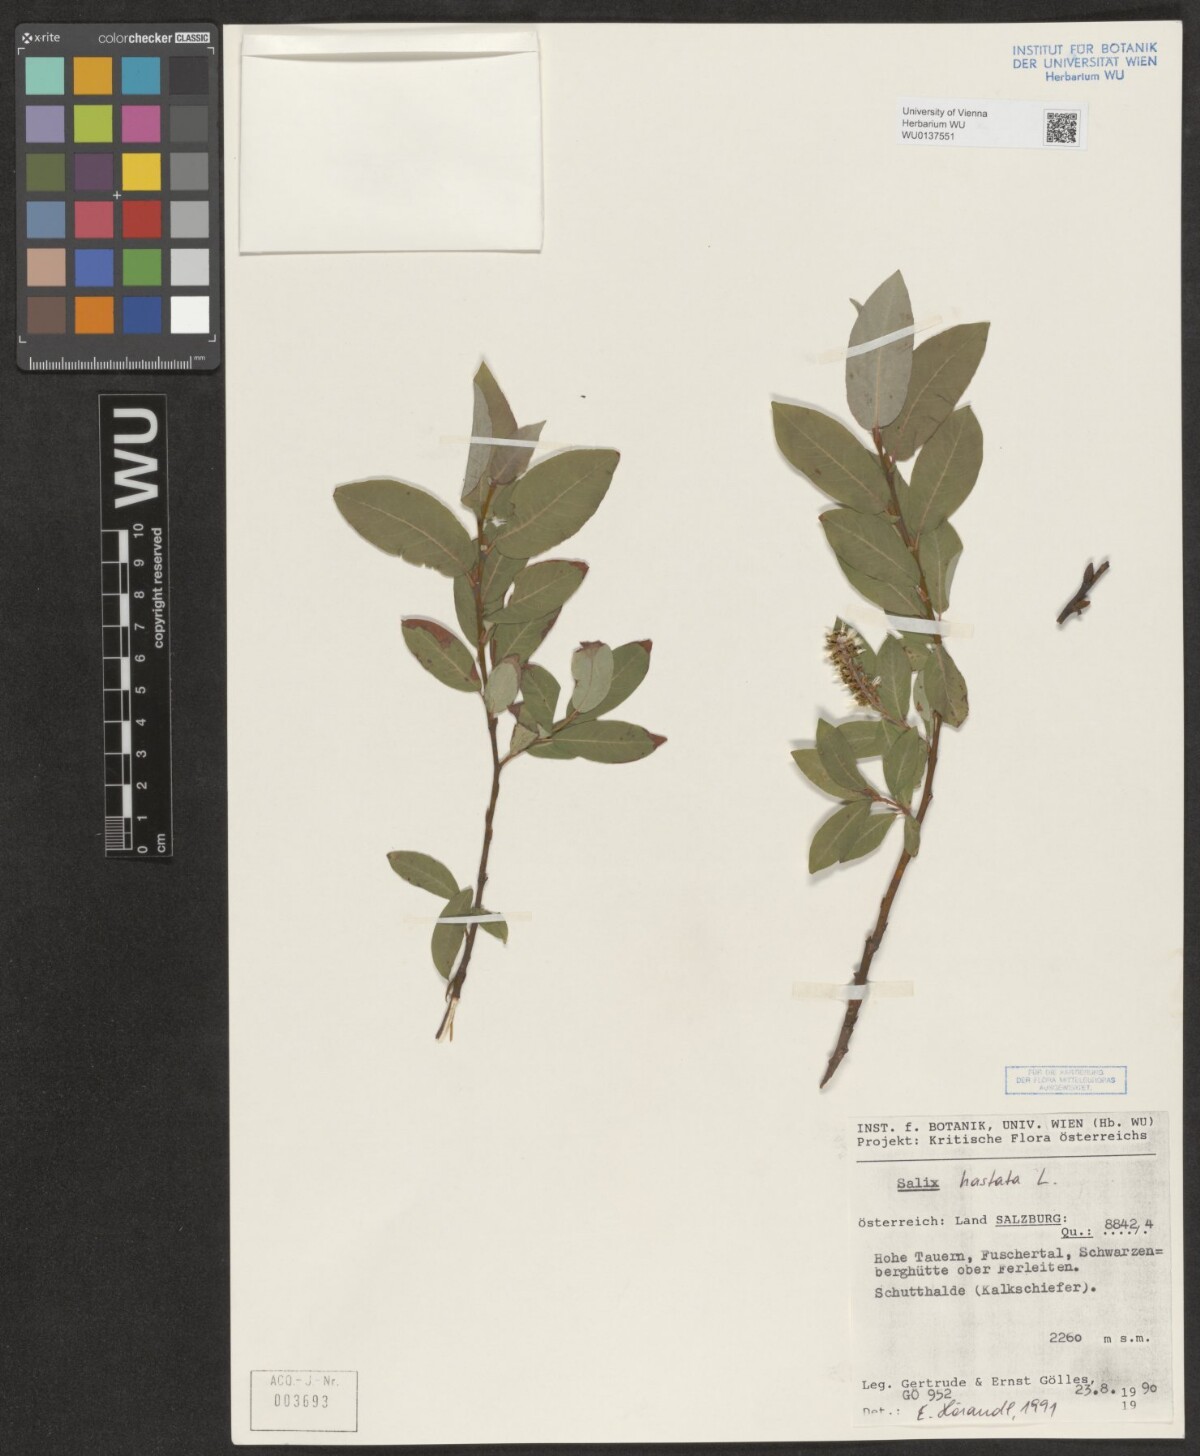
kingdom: Plantae
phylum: Tracheophyta
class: Magnoliopsida
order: Malpighiales
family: Salicaceae
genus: Salix
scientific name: Salix hastata
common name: Halberd willow
